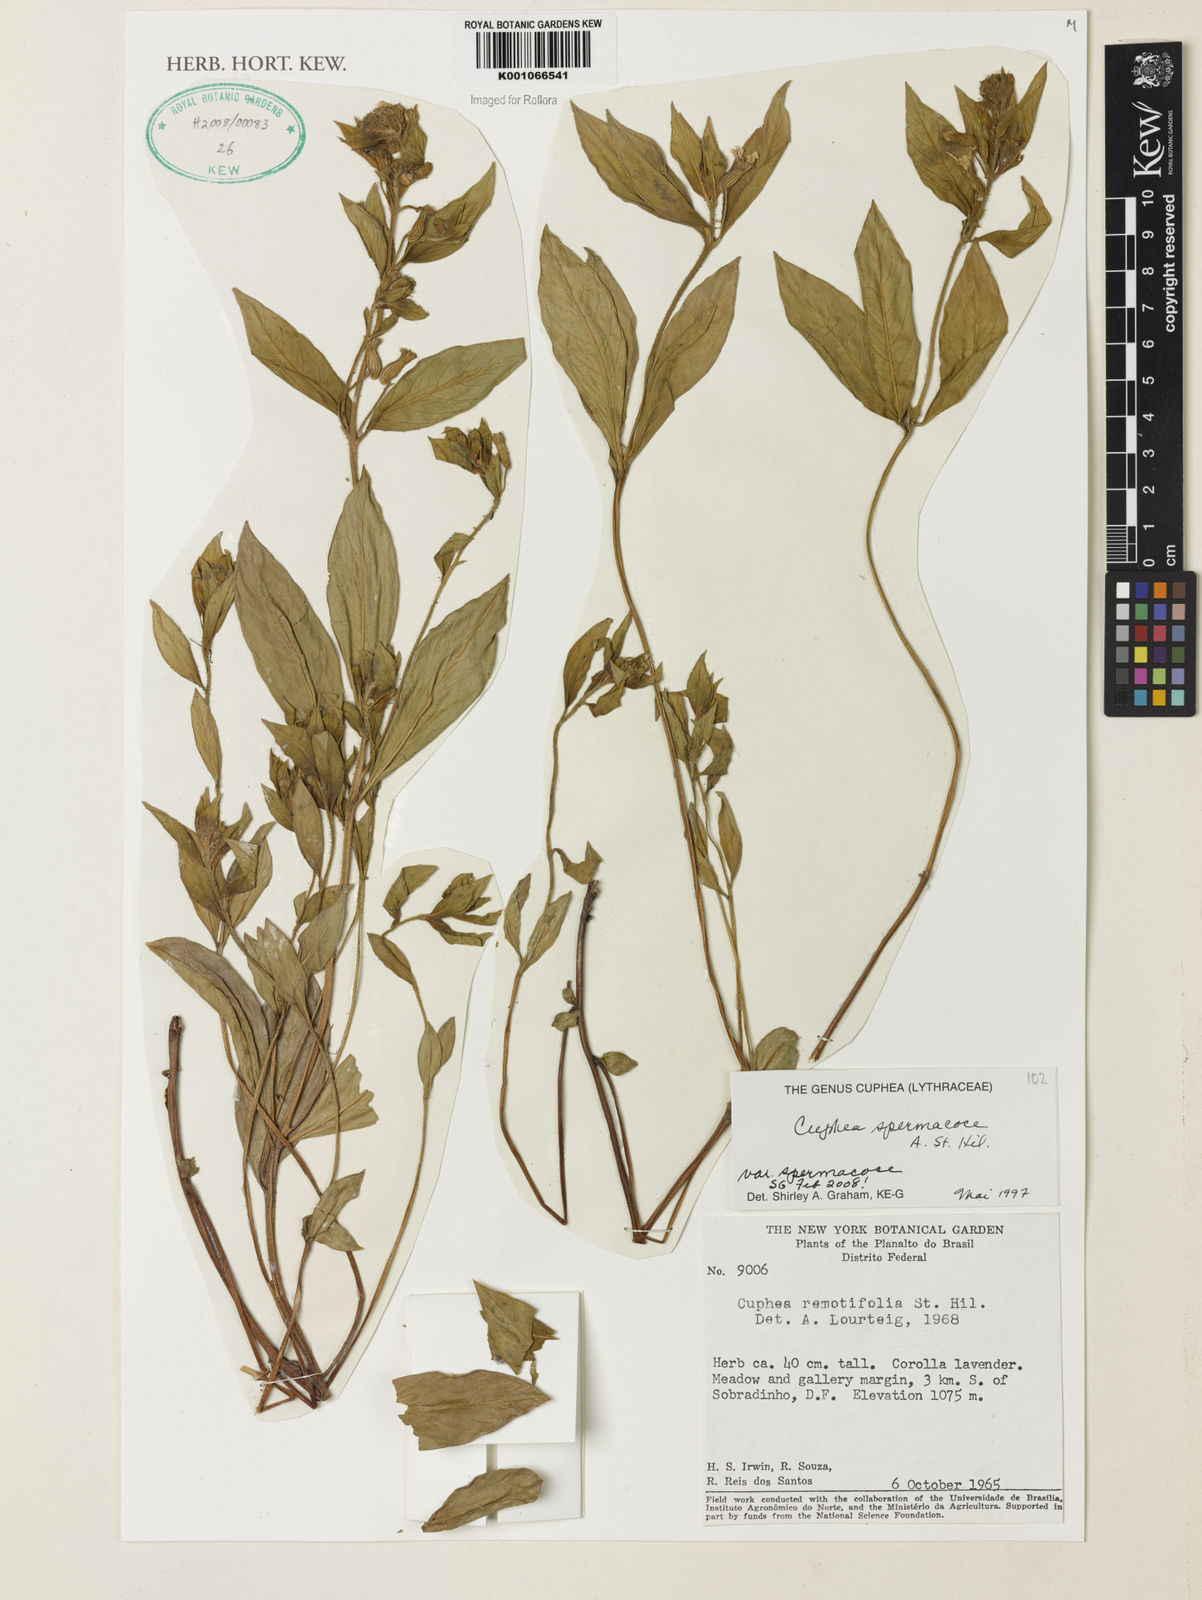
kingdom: Plantae
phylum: Tracheophyta
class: Magnoliopsida
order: Myrtales
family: Lythraceae
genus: Cuphea
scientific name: Cuphea spermacoce
